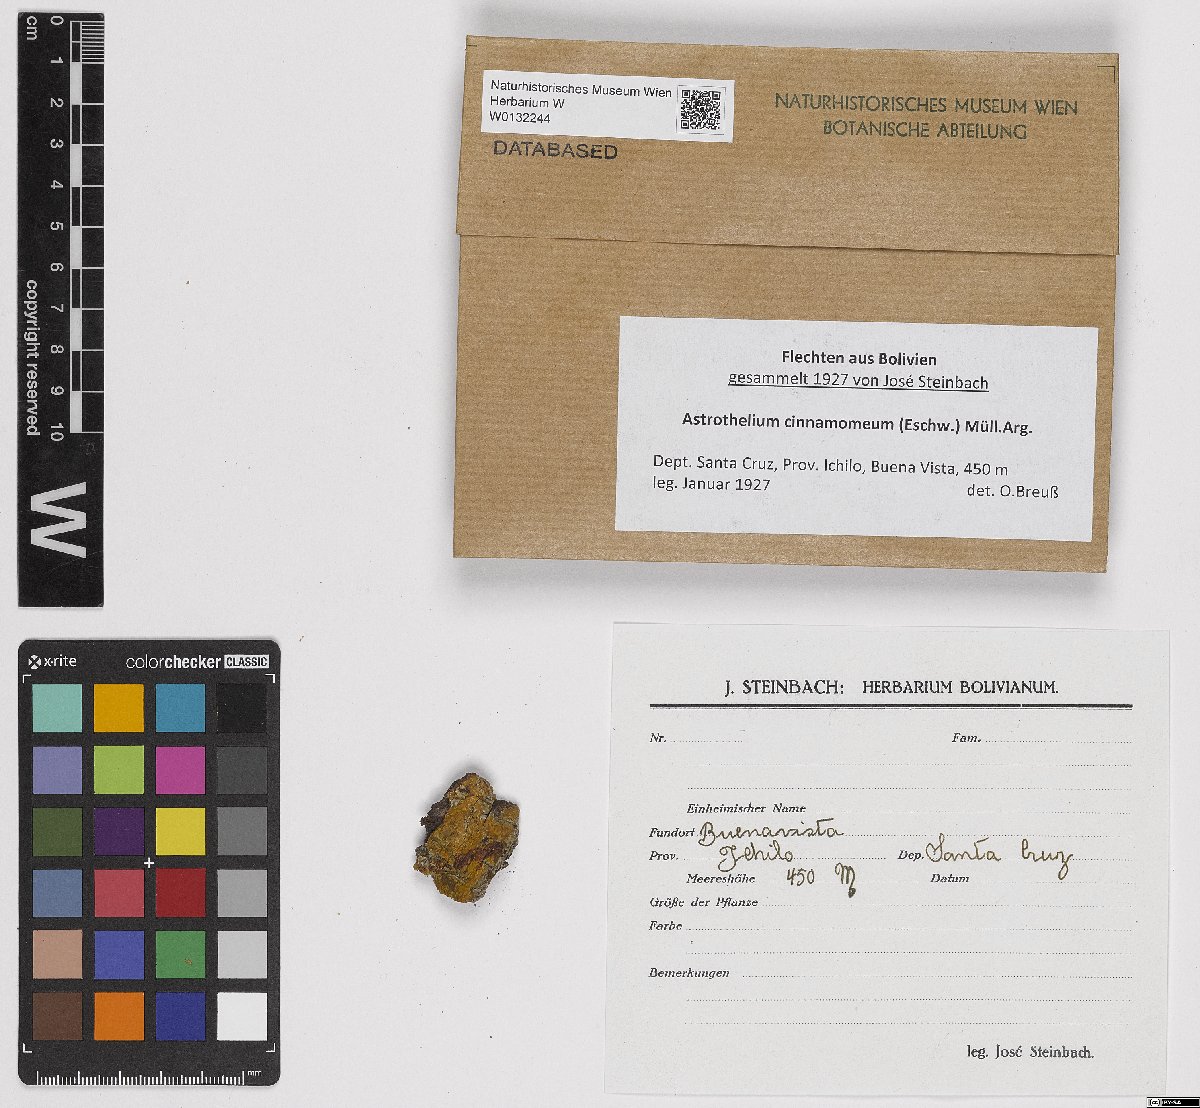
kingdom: Fungi
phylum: Ascomycota
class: Dothideomycetes
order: Trypetheliales
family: Trypetheliaceae
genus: Astrothelium
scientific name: Astrothelium cinnamomeum
